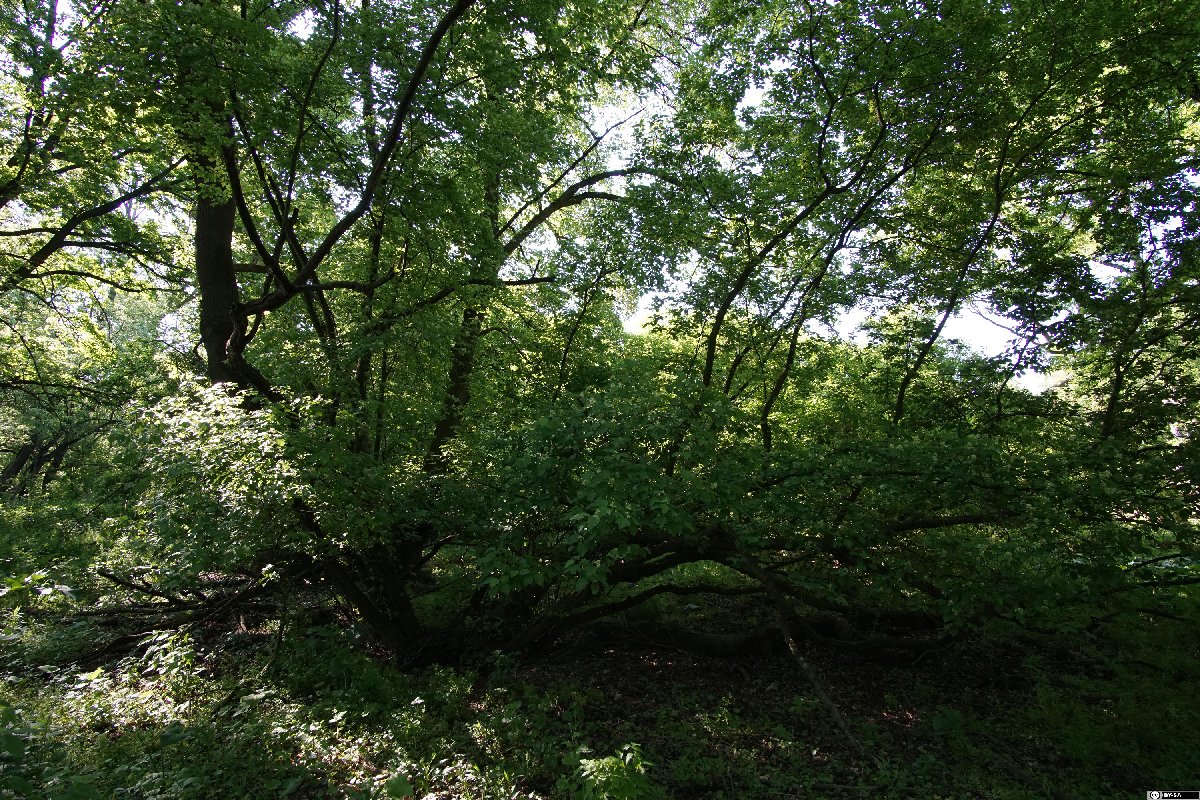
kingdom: Plantae
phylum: Tracheophyta
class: Magnoliopsida
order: Sapindales
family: Sapindaceae
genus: Acer
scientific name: Acer tataricum
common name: Tartar maple
